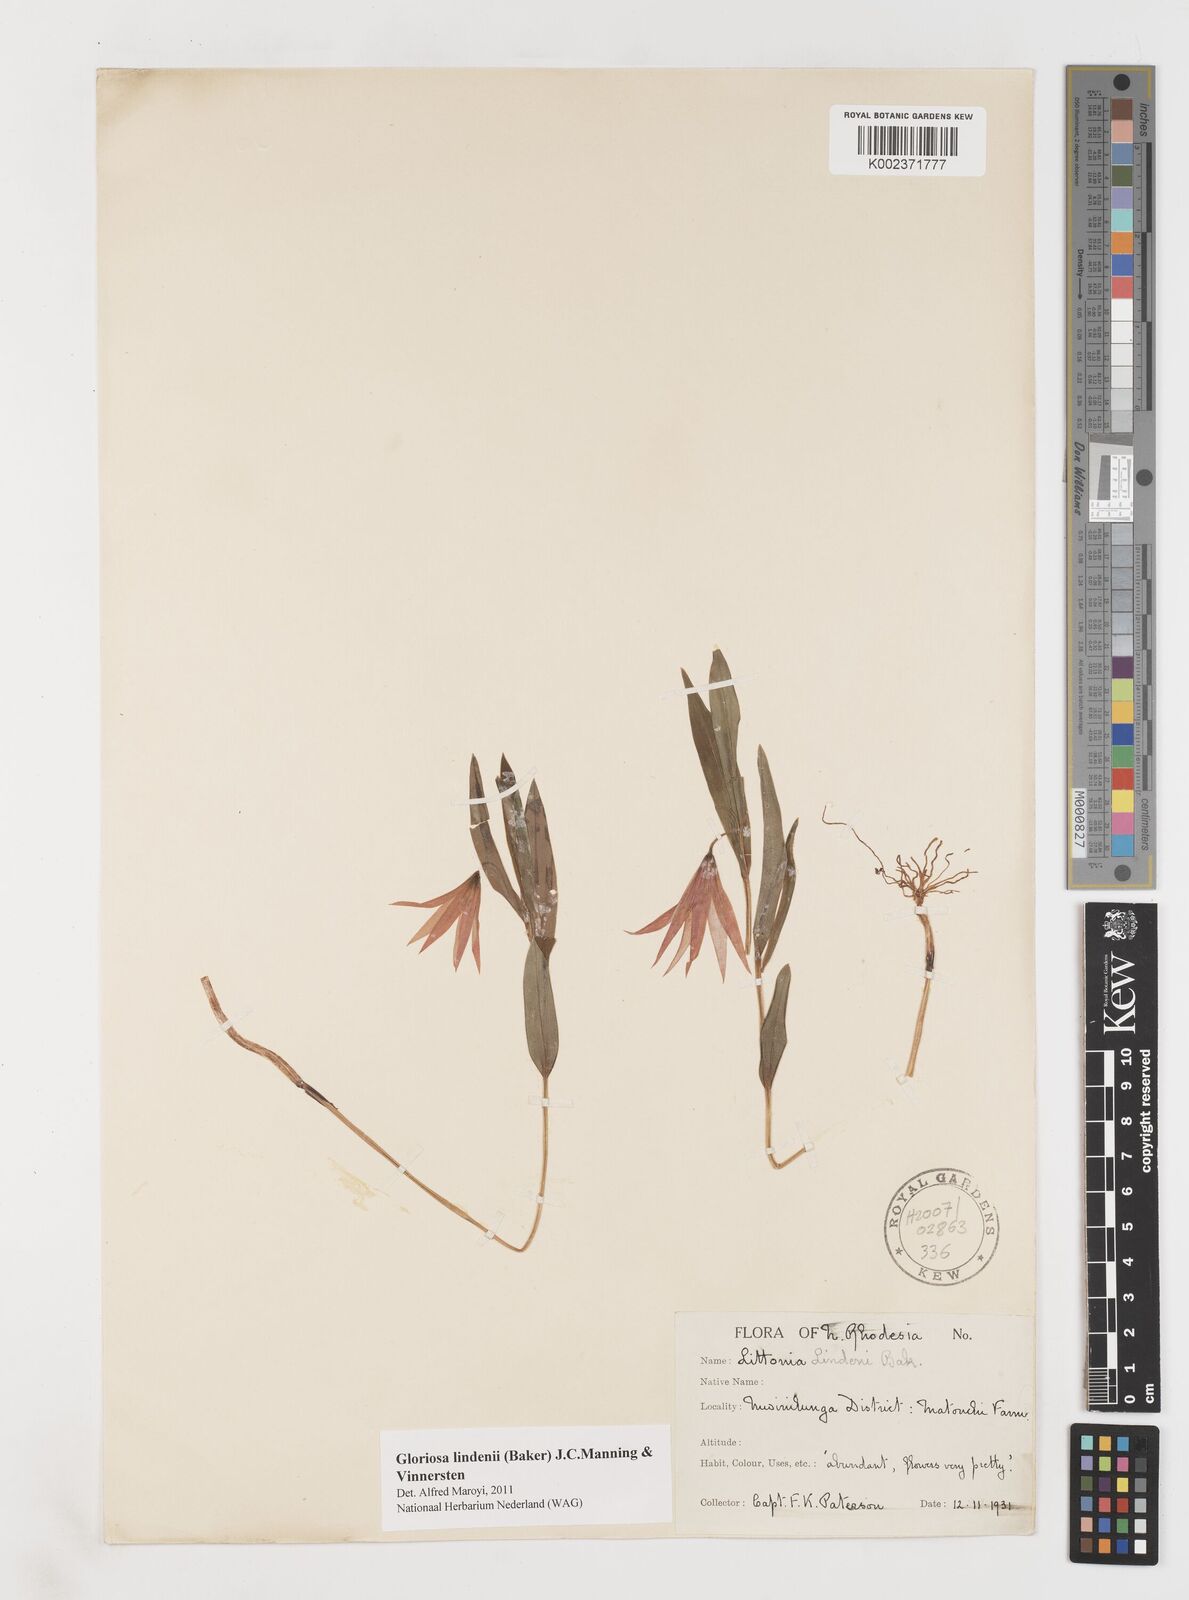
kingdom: Plantae
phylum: Tracheophyta
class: Liliopsida
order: Liliales
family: Colchicaceae
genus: Gloriosa
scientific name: Gloriosa lindenii
